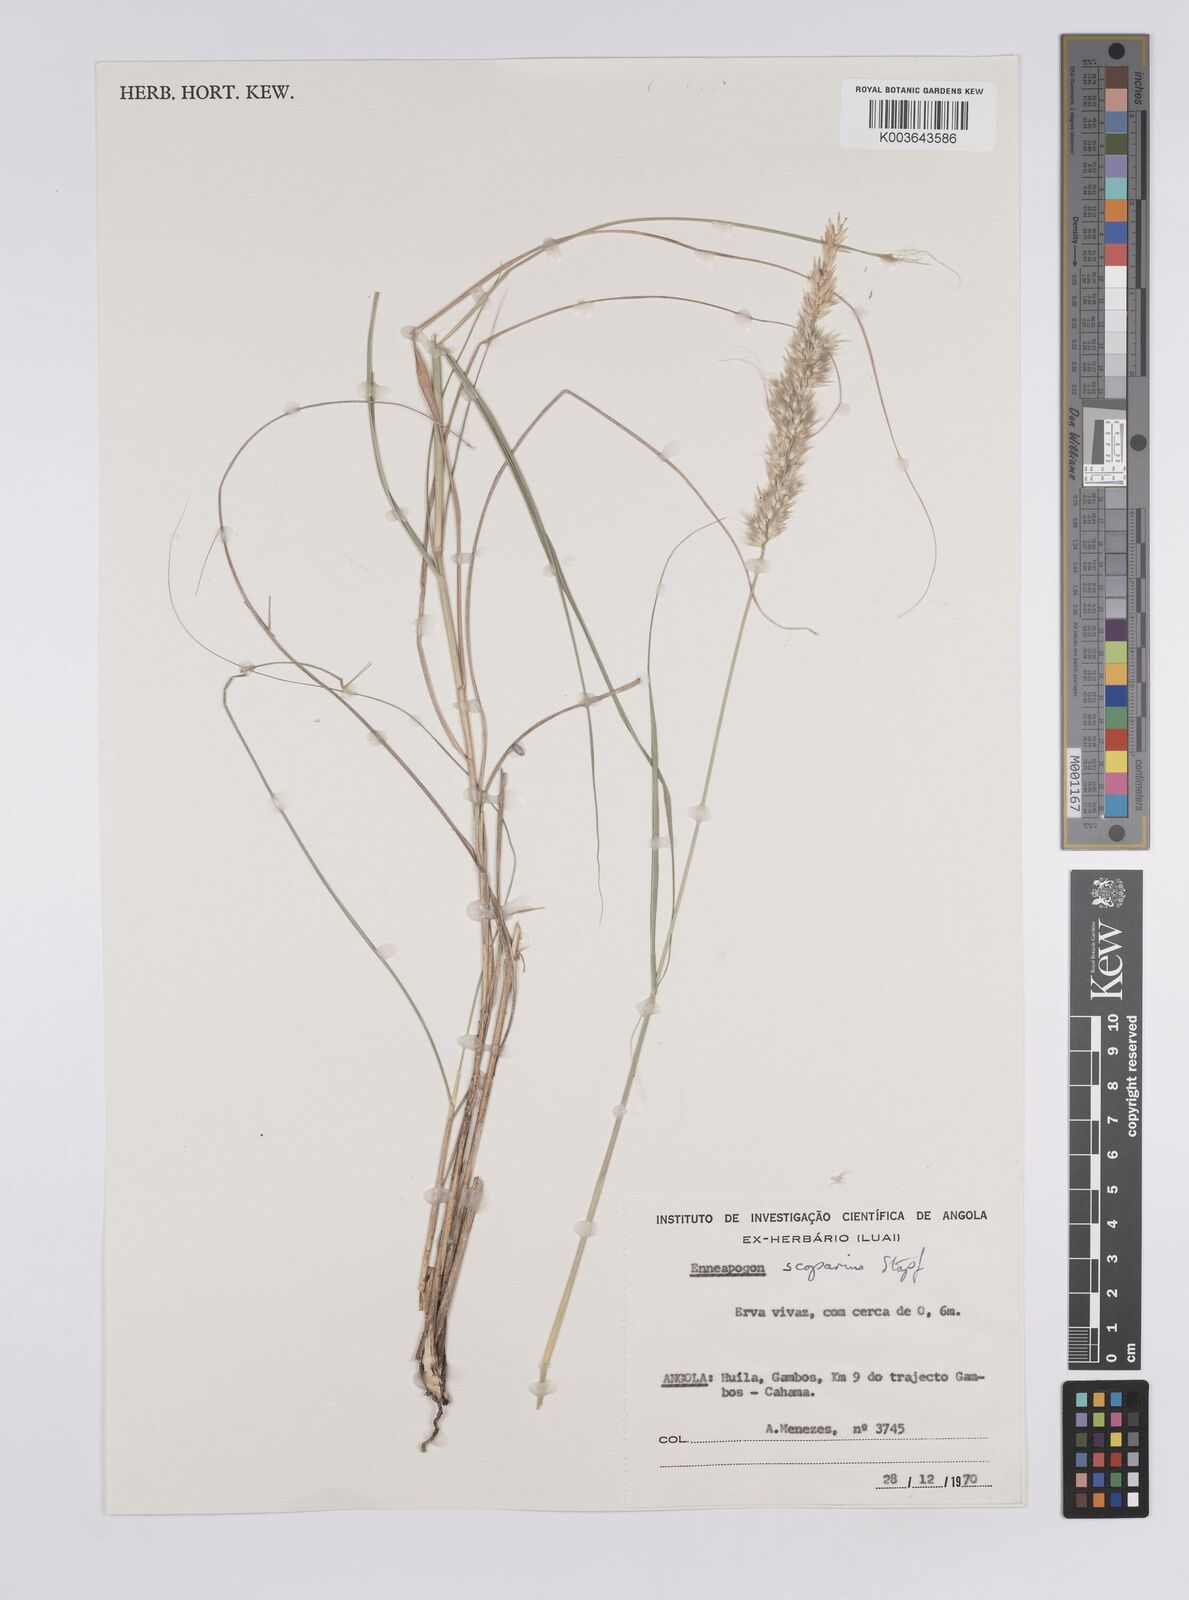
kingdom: Plantae
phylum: Tracheophyta
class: Liliopsida
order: Poales
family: Poaceae
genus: Enneapogon
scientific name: Enneapogon scoparius
